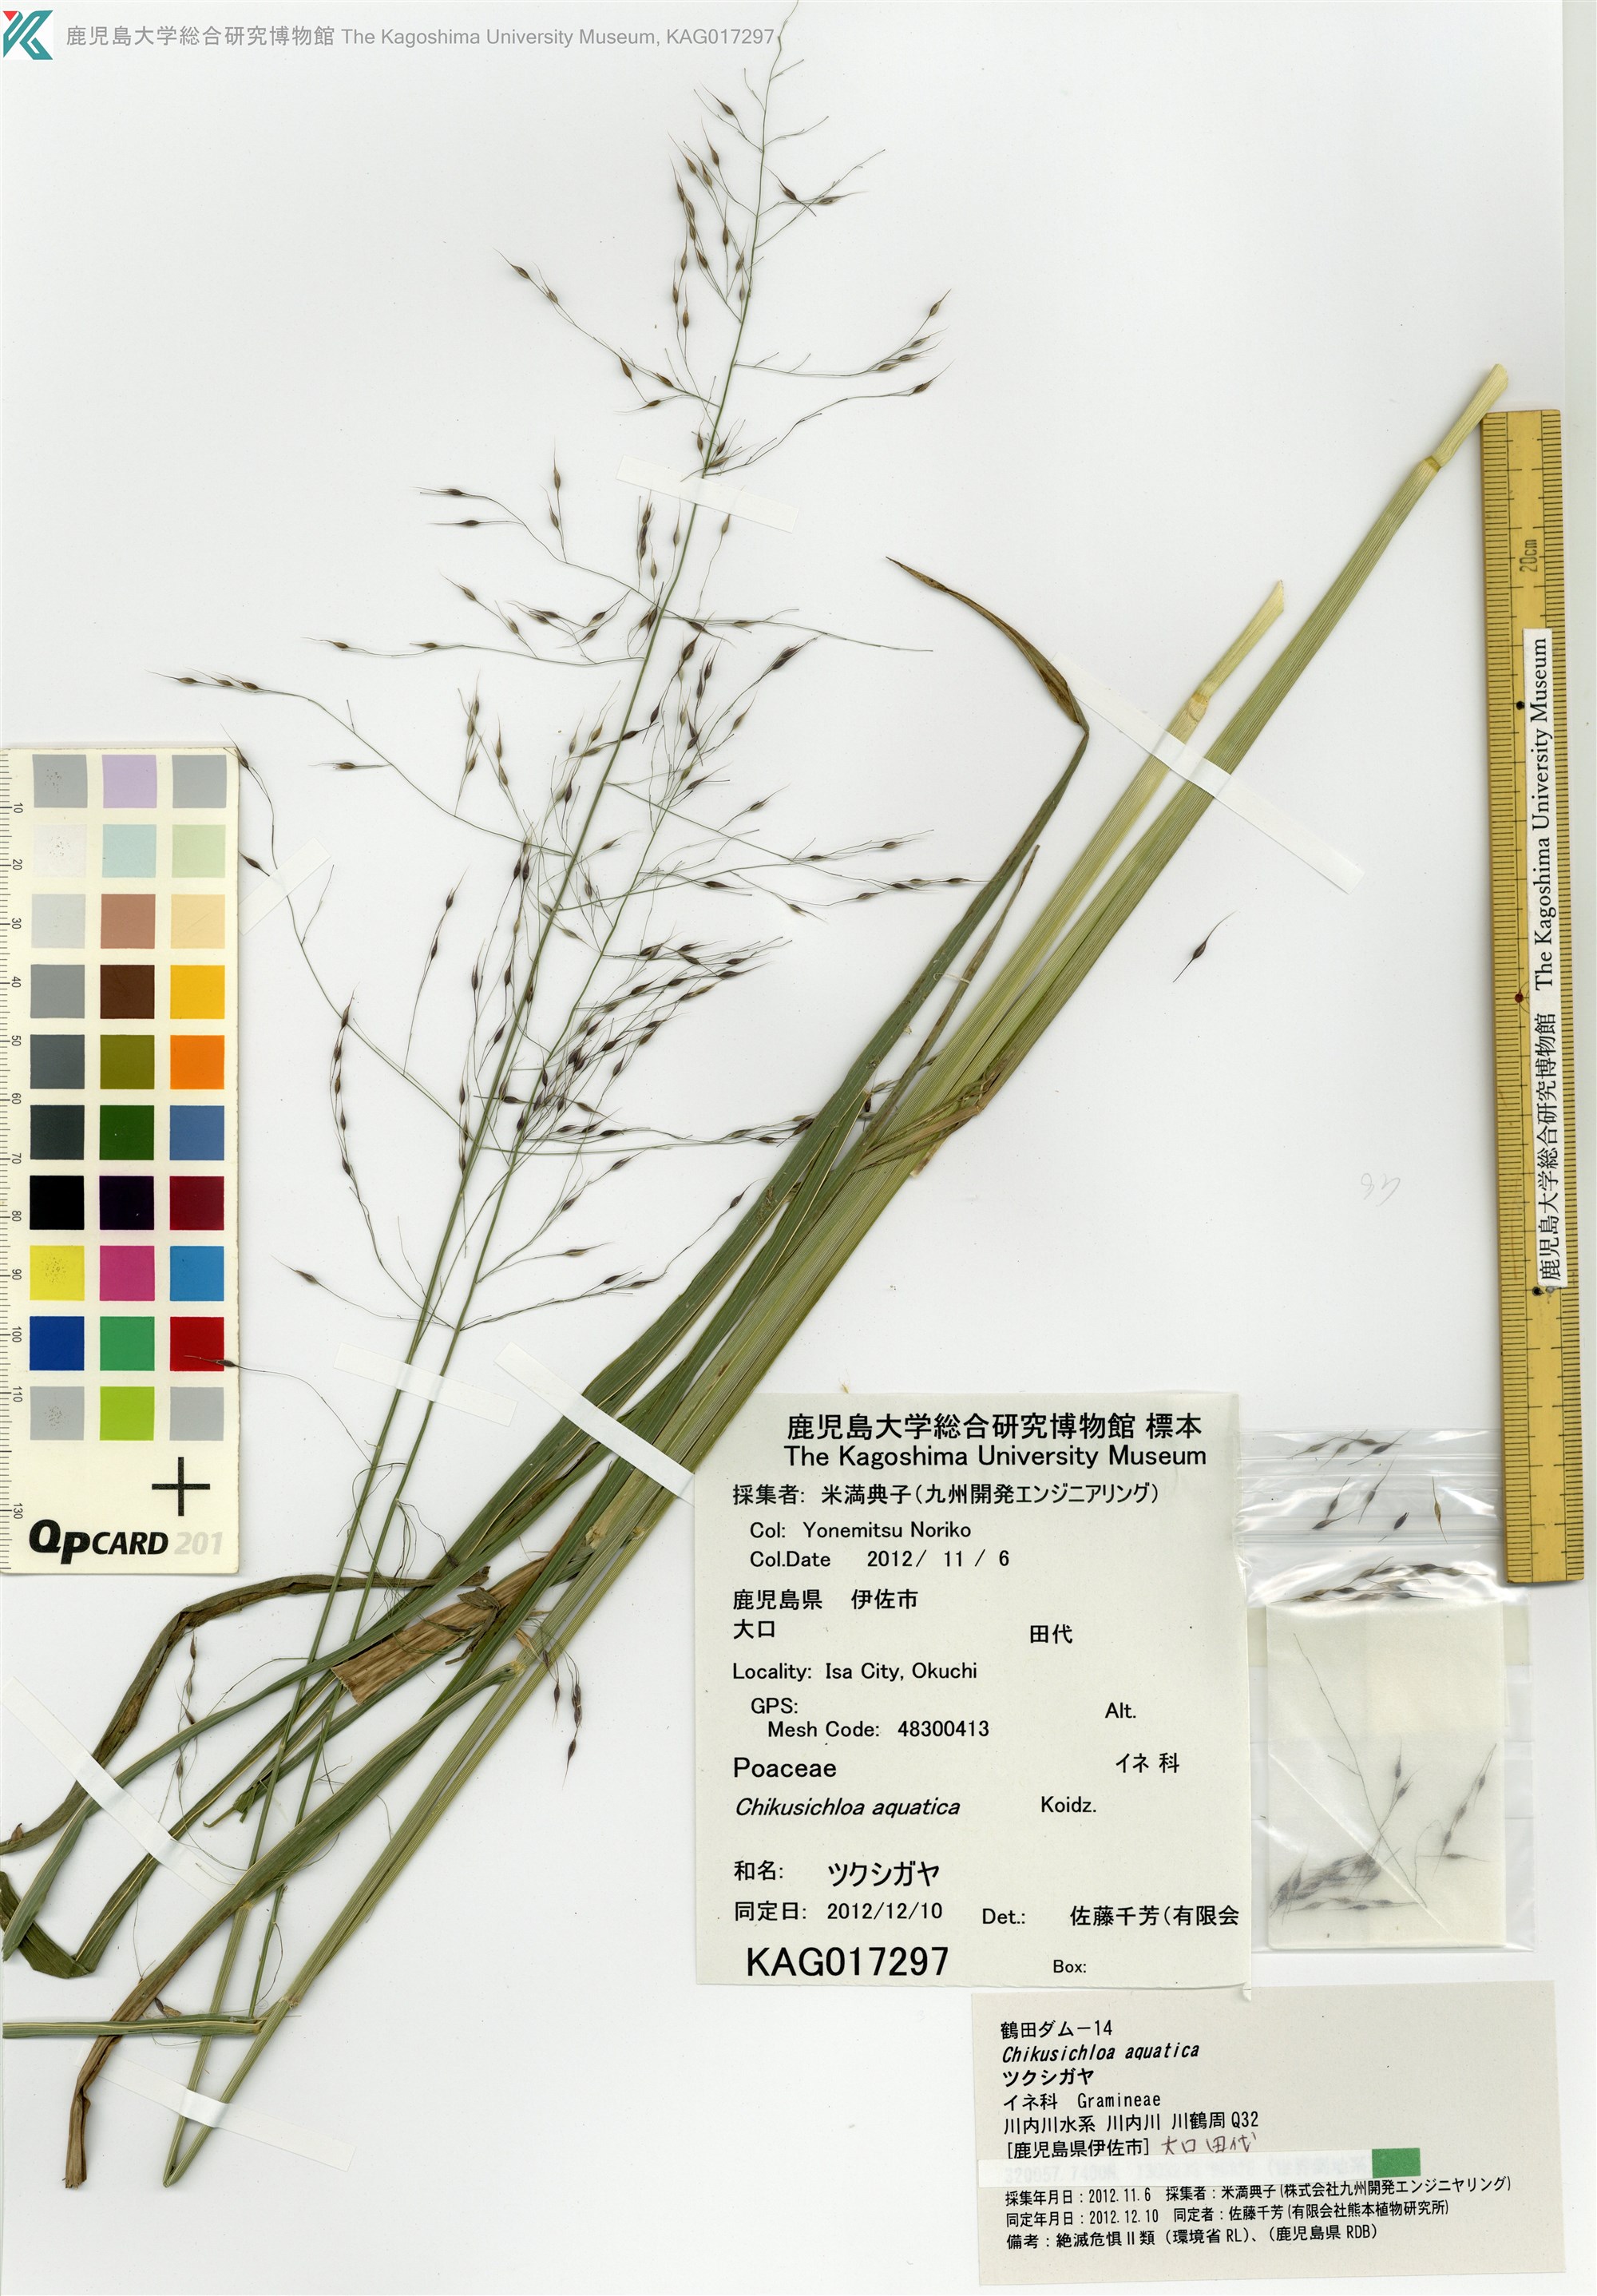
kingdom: Plantae
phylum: Tracheophyta
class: Liliopsida
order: Poales
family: Poaceae
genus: Chikusichloa
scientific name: Chikusichloa aquatica
